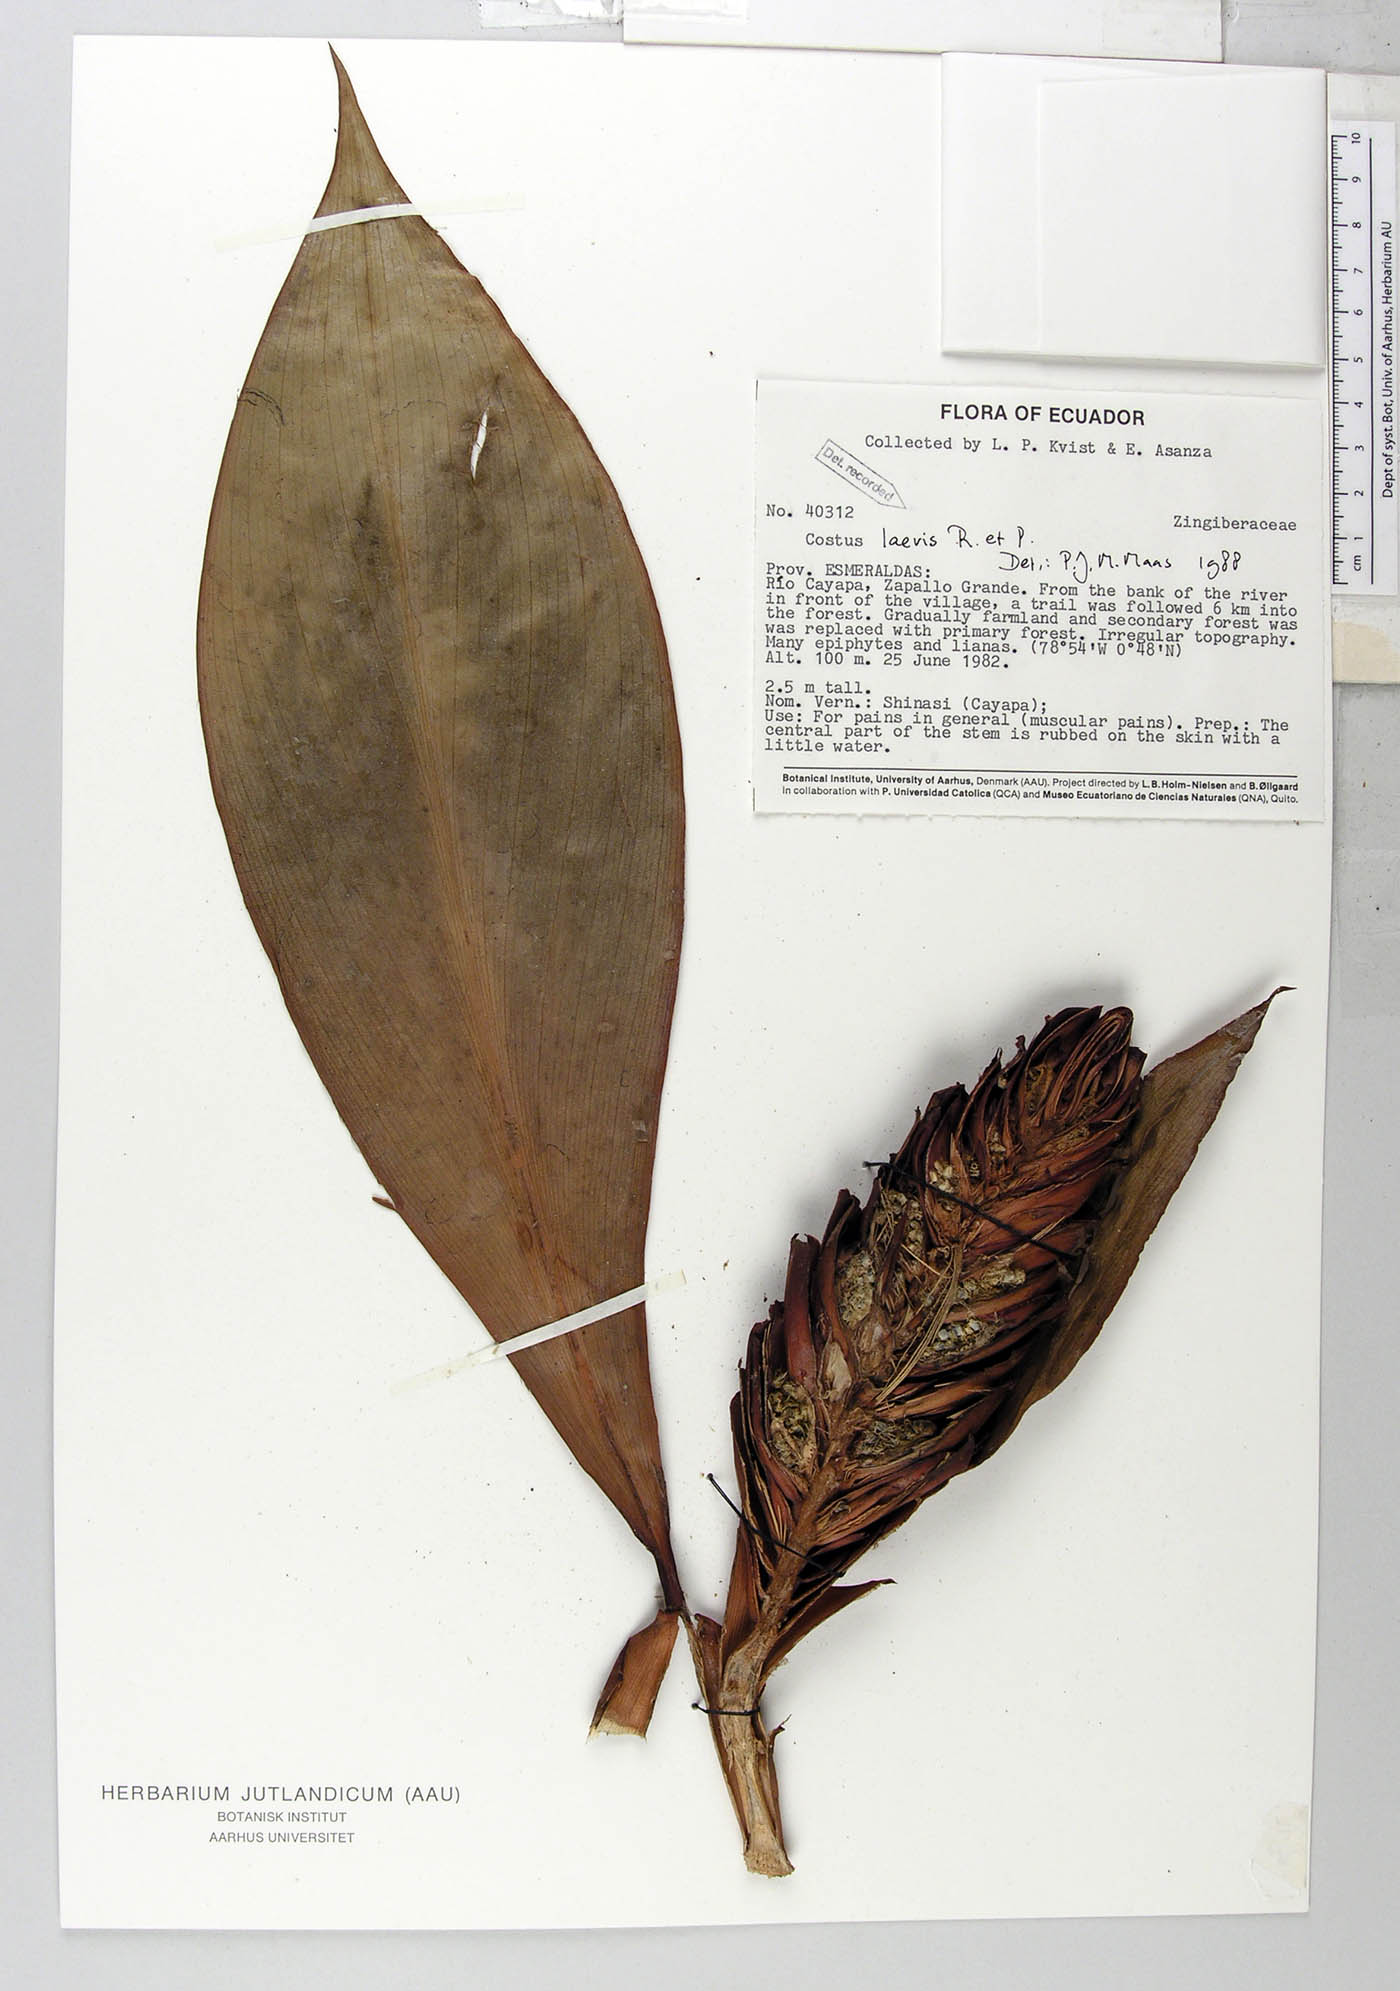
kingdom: Plantae
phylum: Tracheophyta
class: Liliopsida
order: Zingiberales
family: Costaceae
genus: Costus
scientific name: Costus laevis
